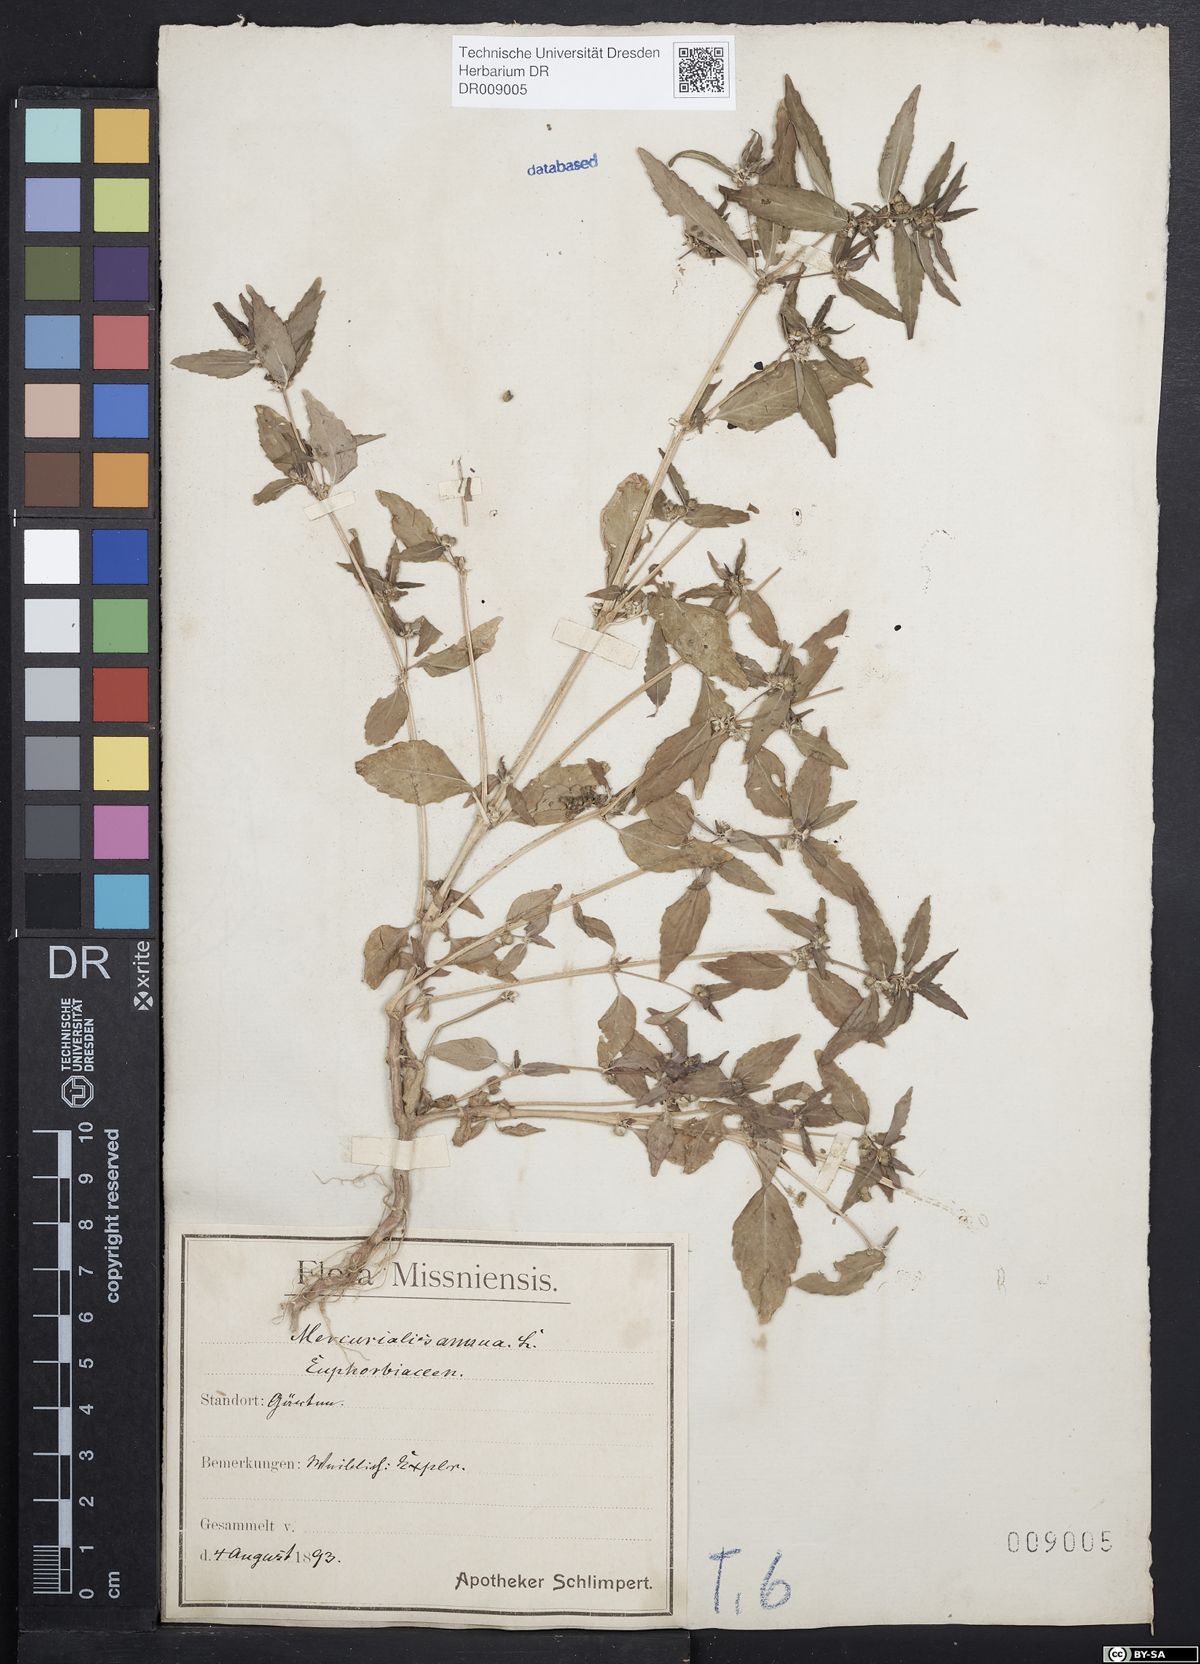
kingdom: Plantae
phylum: Tracheophyta
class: Magnoliopsida
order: Malpighiales
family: Euphorbiaceae
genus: Mercurialis
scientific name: Mercurialis annua
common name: Annual mercury
